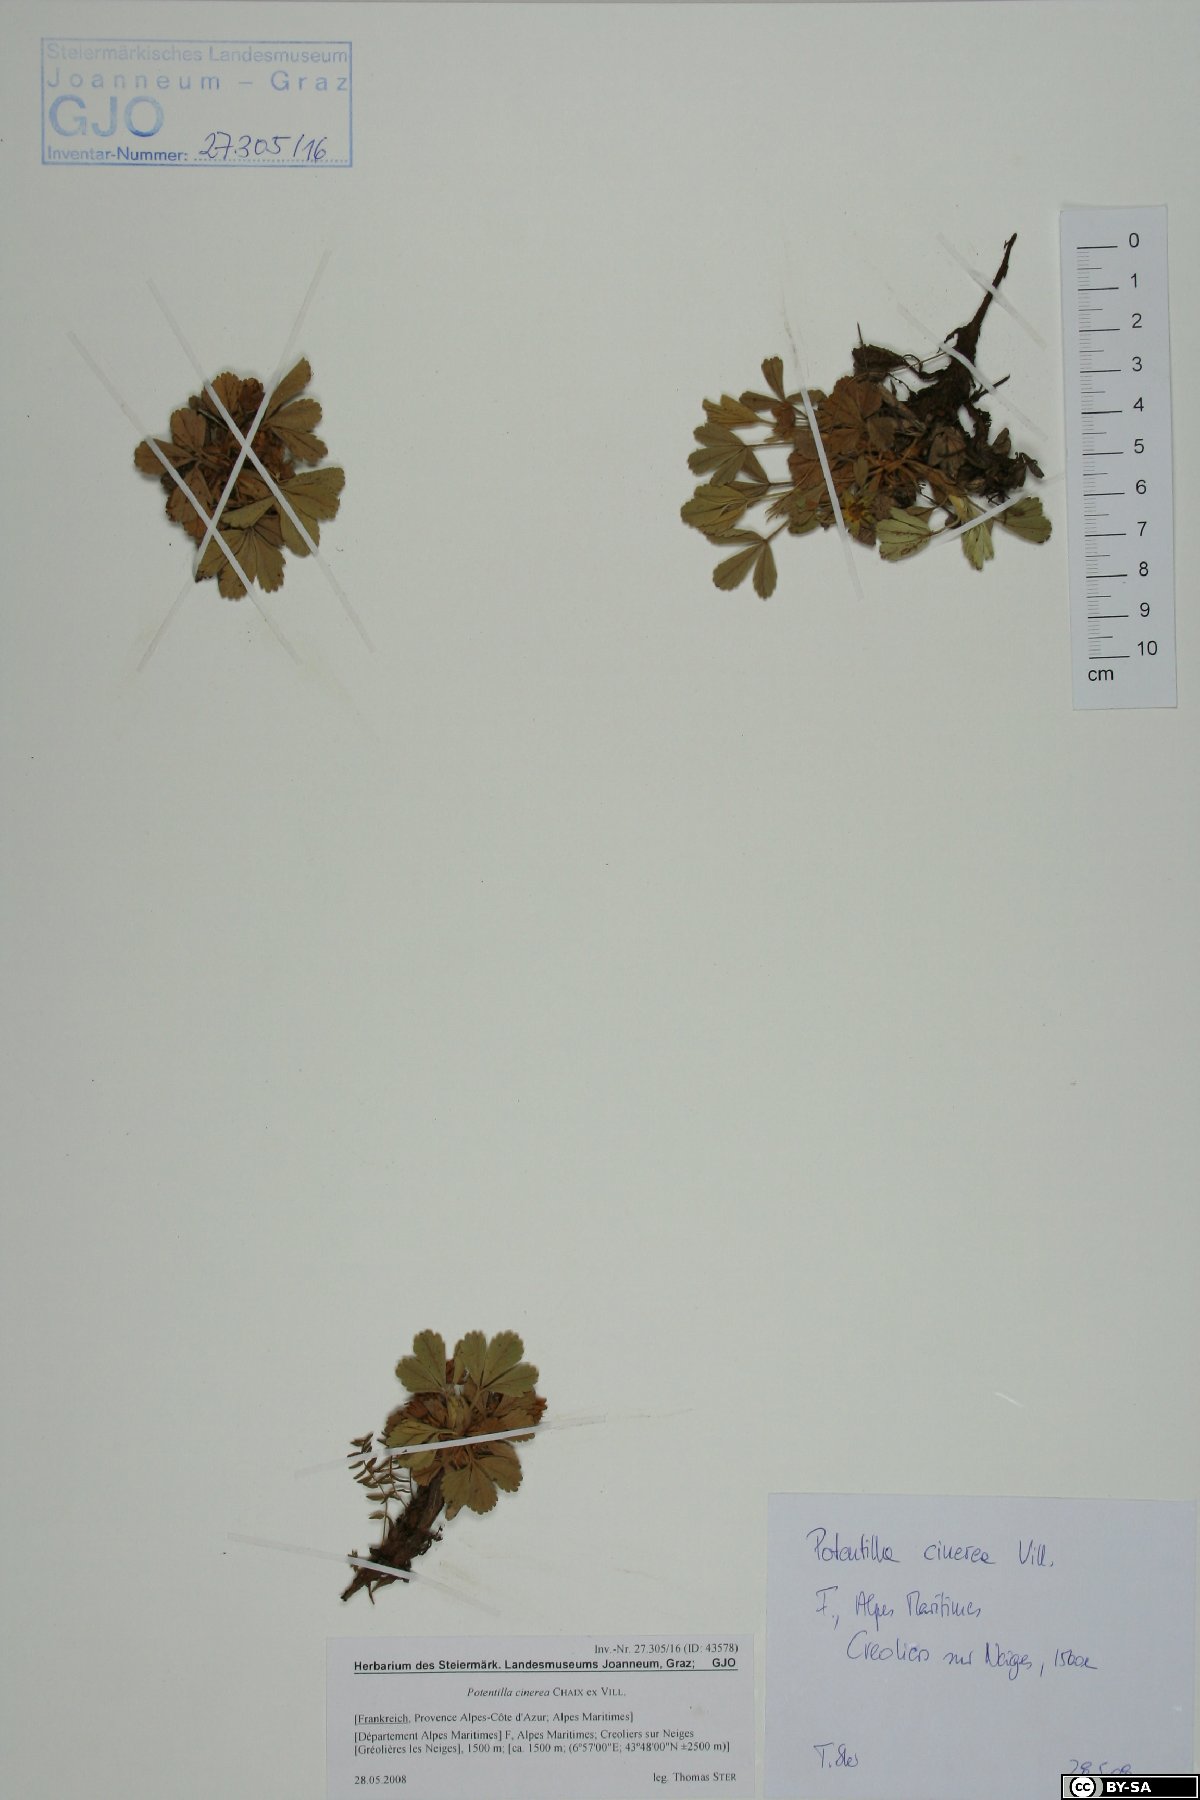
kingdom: Plantae
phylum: Tracheophyta
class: Magnoliopsida
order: Rosales
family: Rosaceae
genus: Potentilla
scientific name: Potentilla cinerea
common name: Ashy cinquefoil
